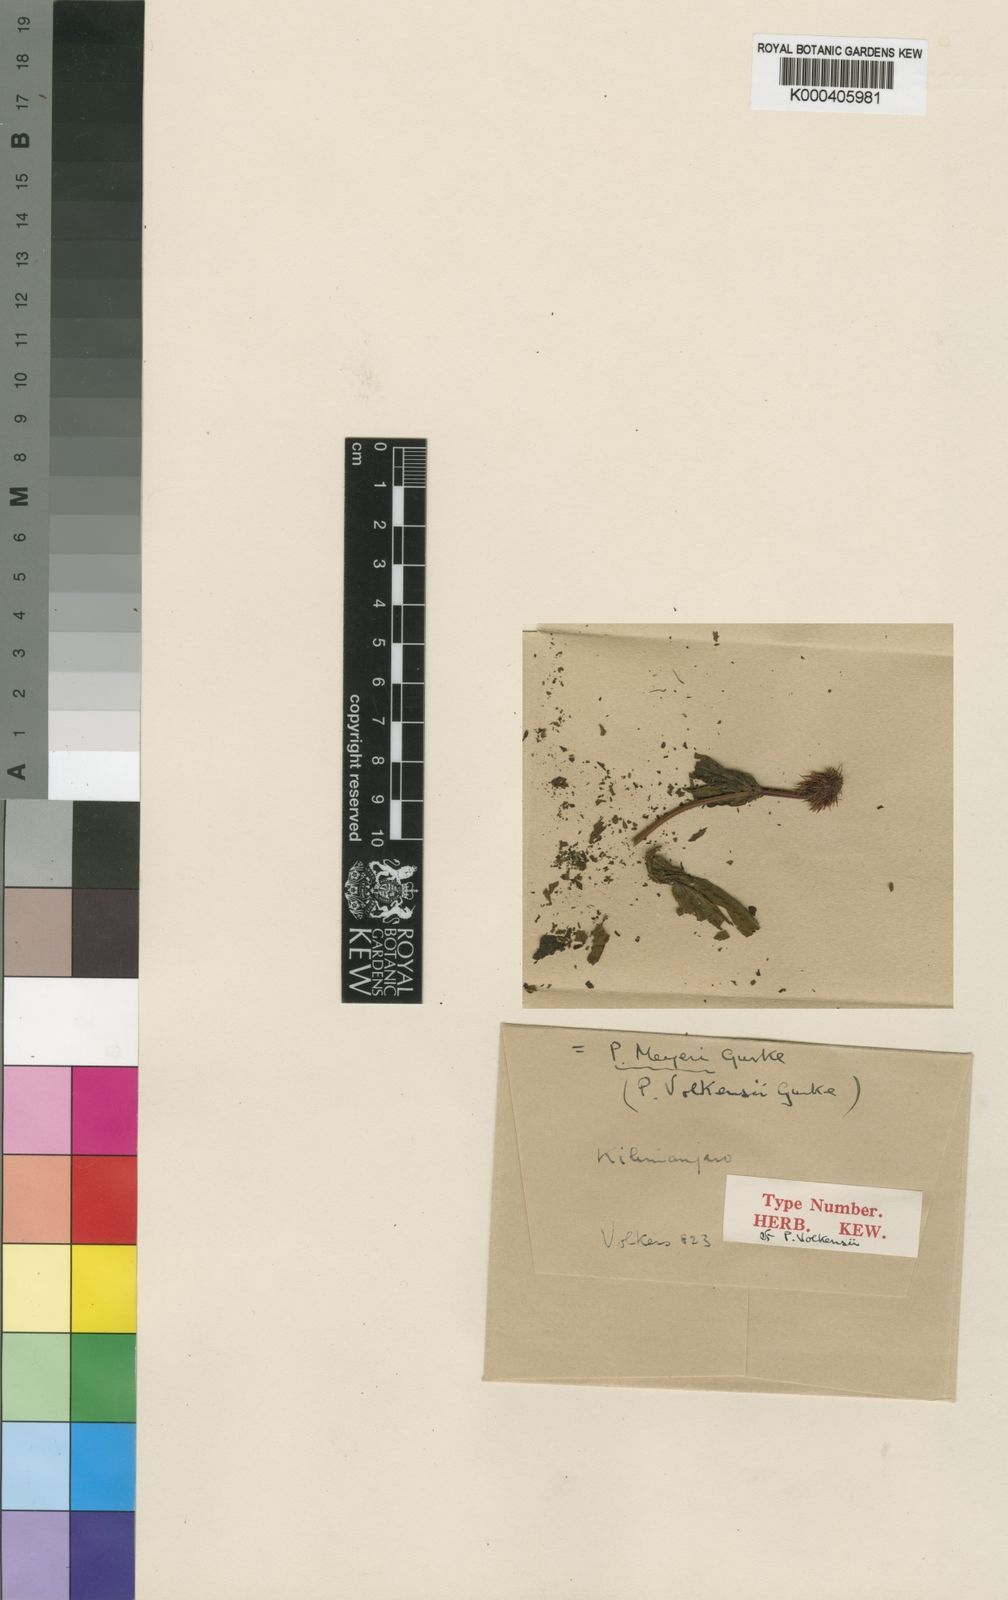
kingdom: Plantae
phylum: Tracheophyta
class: Magnoliopsida
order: Lamiales
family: Lamiaceae
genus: Coleus
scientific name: Coleus
